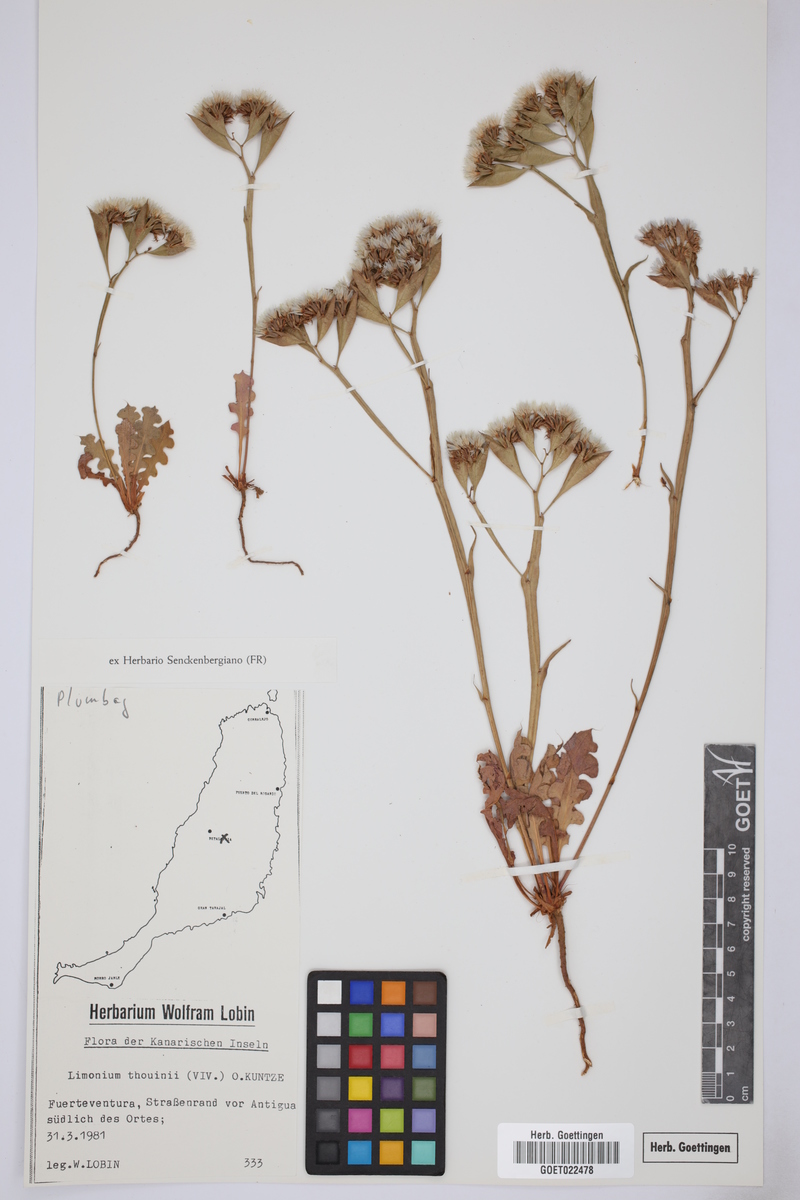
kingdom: Plantae
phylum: Tracheophyta
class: Magnoliopsida
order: Caryophyllales
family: Plumbaginaceae
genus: Limonium
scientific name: Limonium lobatum
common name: Winged sea-lavender
